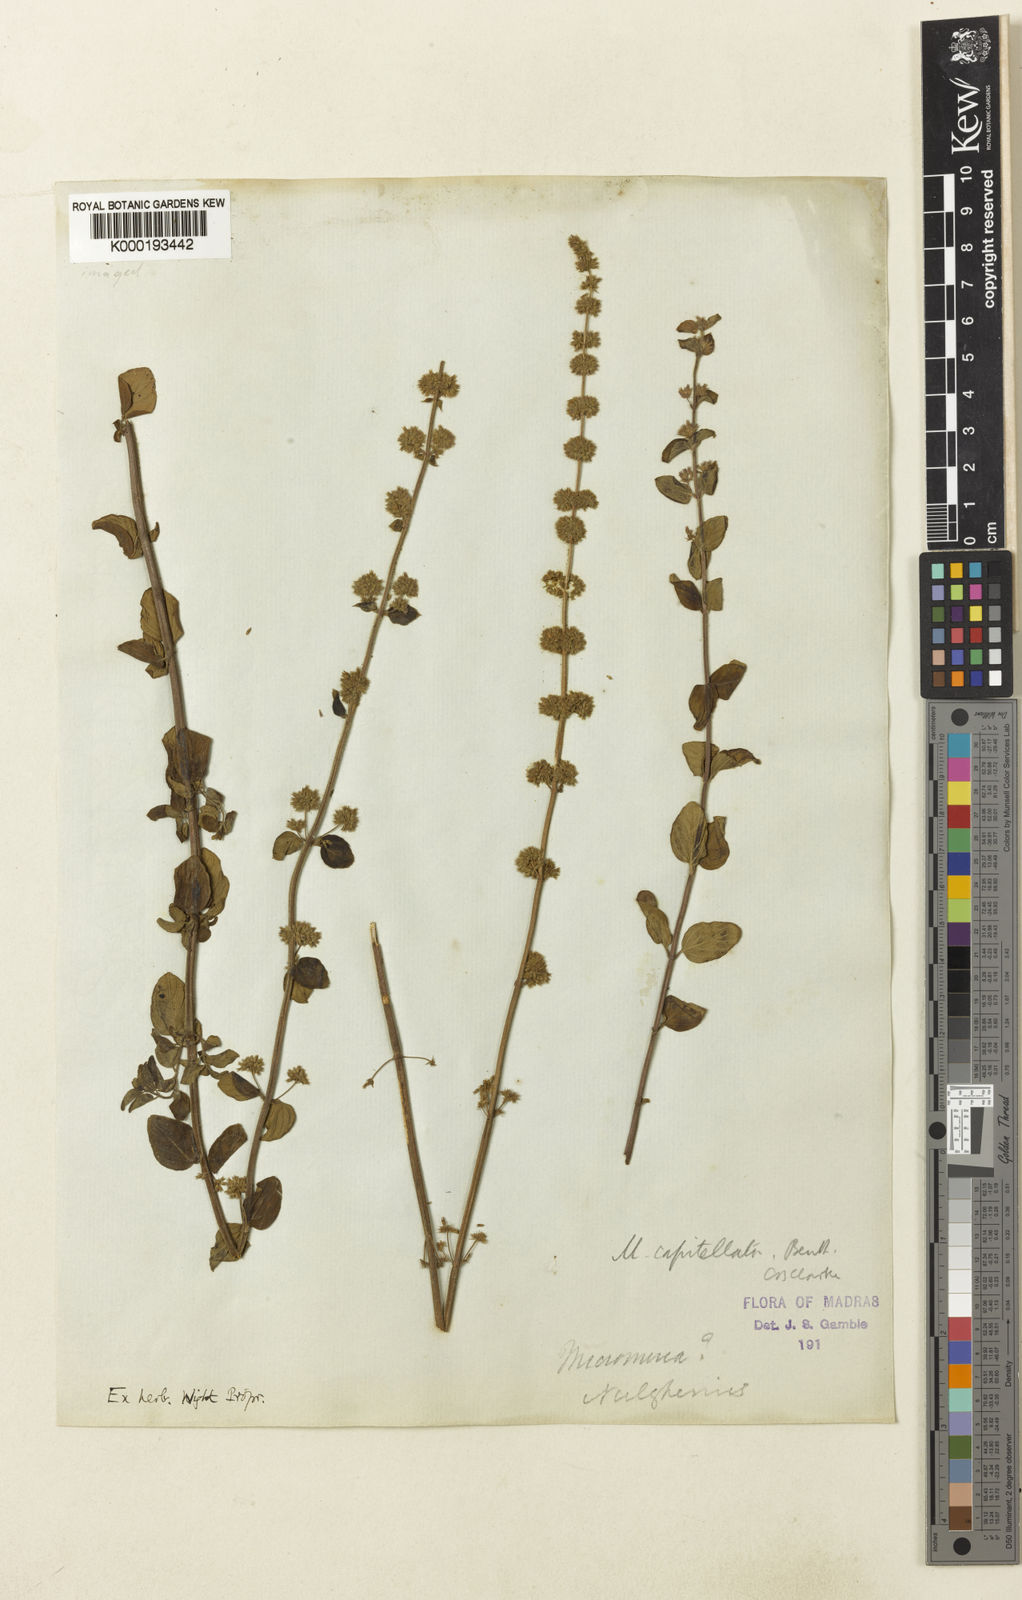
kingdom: Plantae
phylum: Tracheophyta
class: Magnoliopsida
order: Lamiales
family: Lamiaceae
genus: Clinopodium
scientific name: Clinopodium capitellatum
